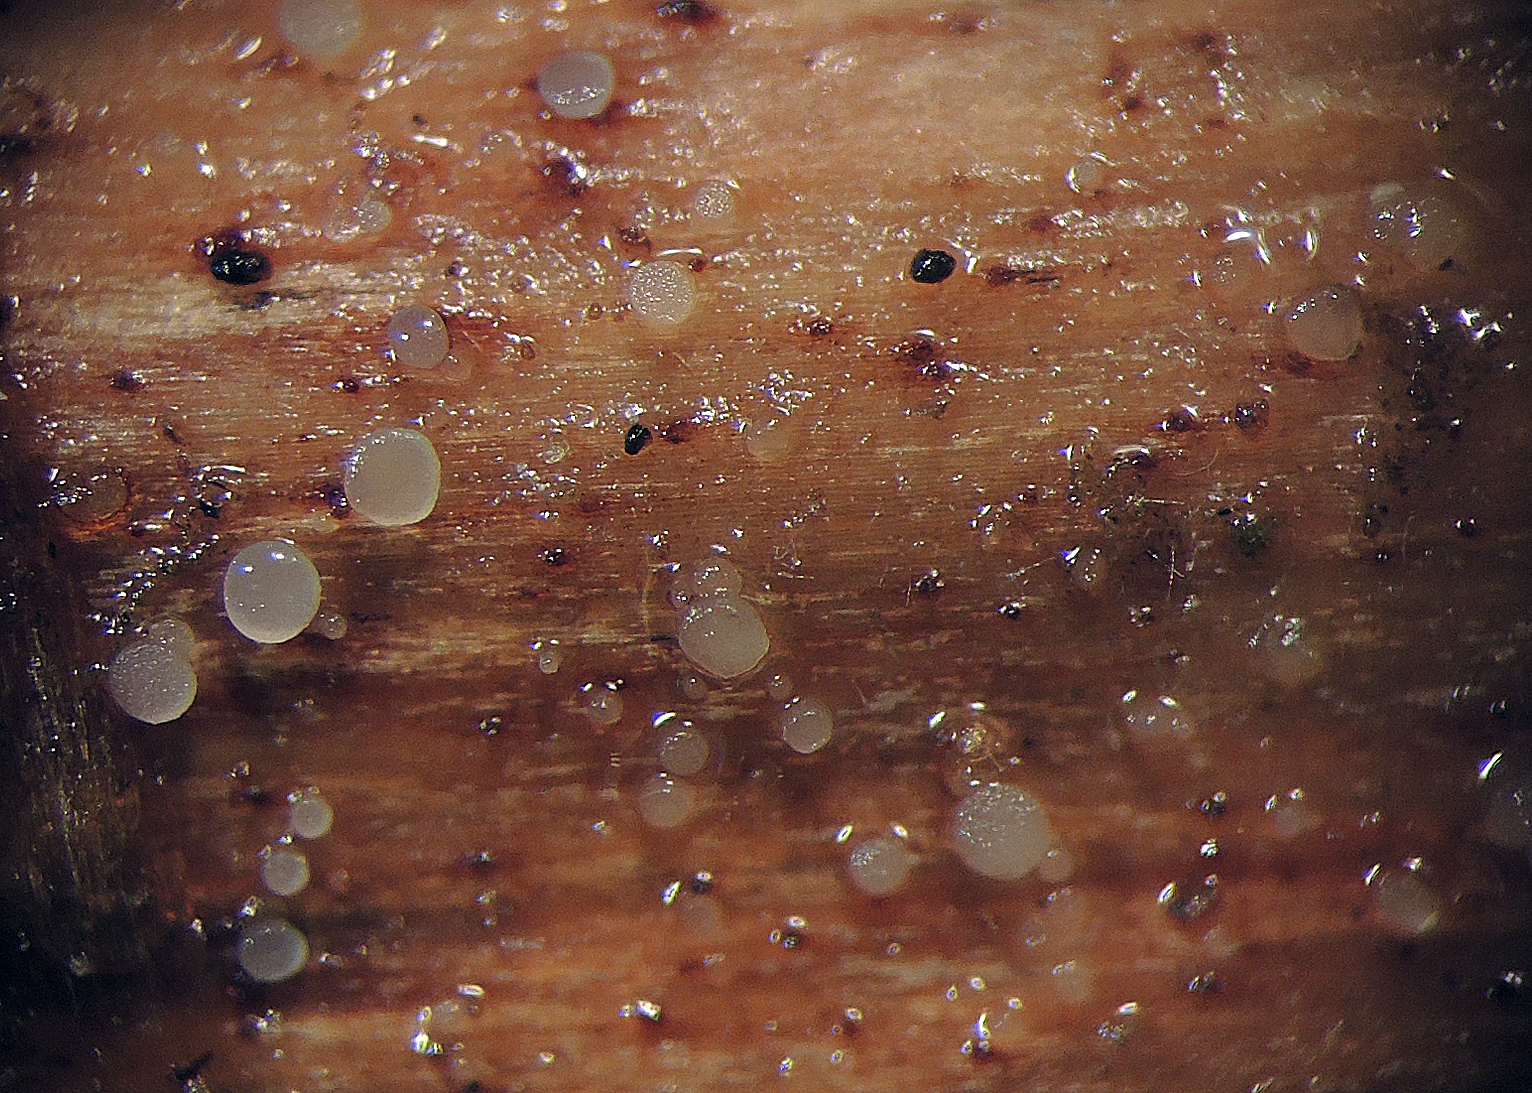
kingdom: Fungi
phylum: Ascomycota
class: Leotiomycetes
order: Helotiales
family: Pezizellaceae
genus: Allophylaria
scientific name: Allophylaria campanuliformis
